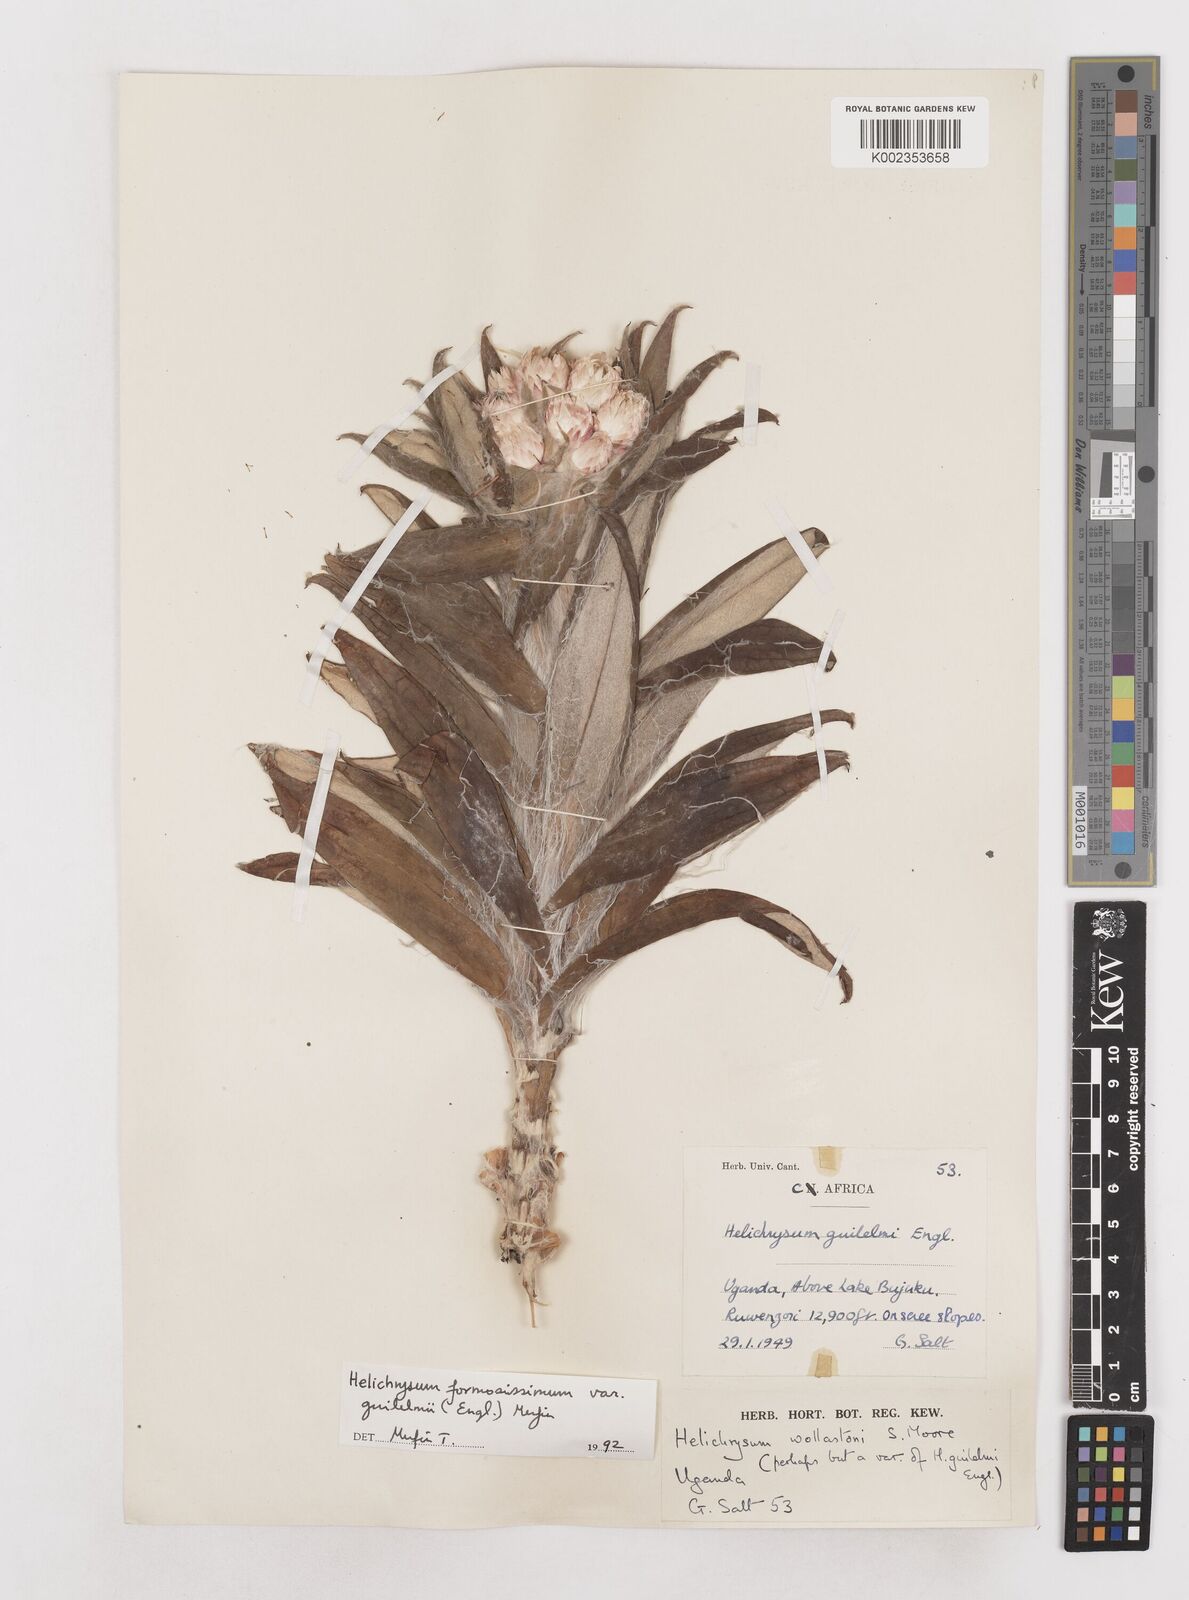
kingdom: Plantae
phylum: Tracheophyta
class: Magnoliopsida
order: Asterales
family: Asteraceae
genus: Helichrysum
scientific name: Helichrysum formosissimum
